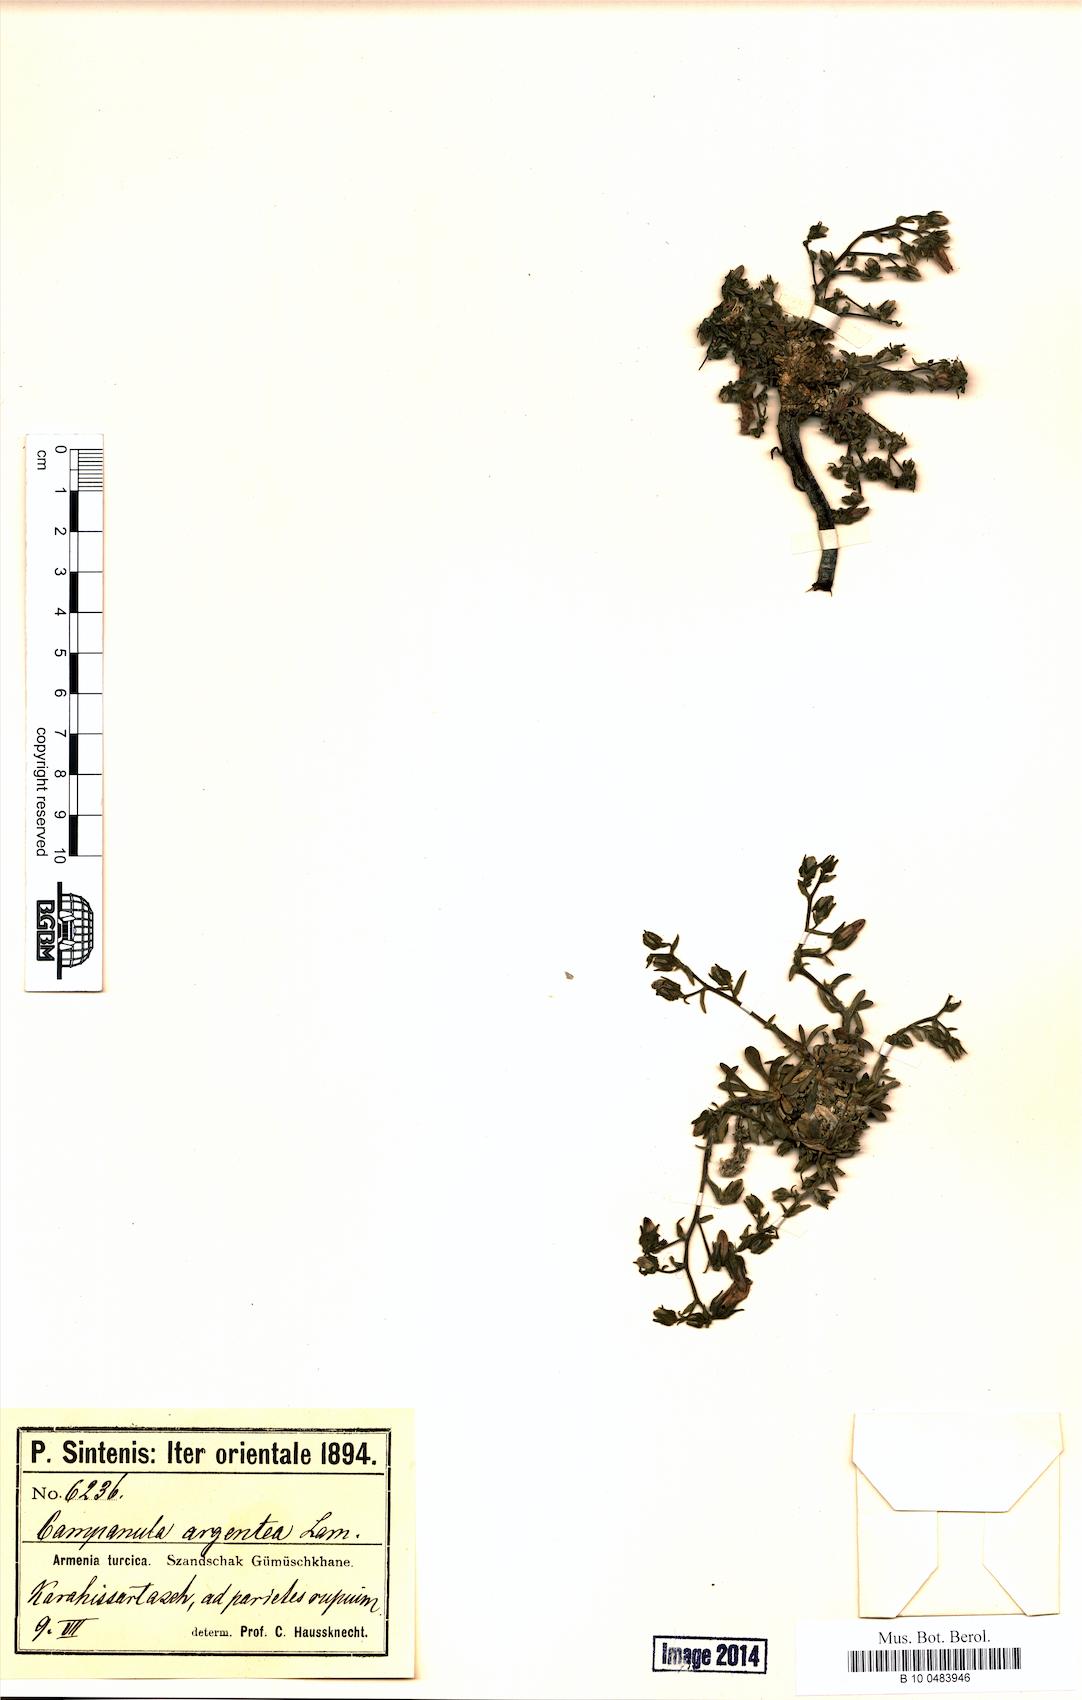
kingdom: Plantae
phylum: Tracheophyta
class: Magnoliopsida
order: Asterales
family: Campanulaceae
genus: Campanula
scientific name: Campanula argentea
